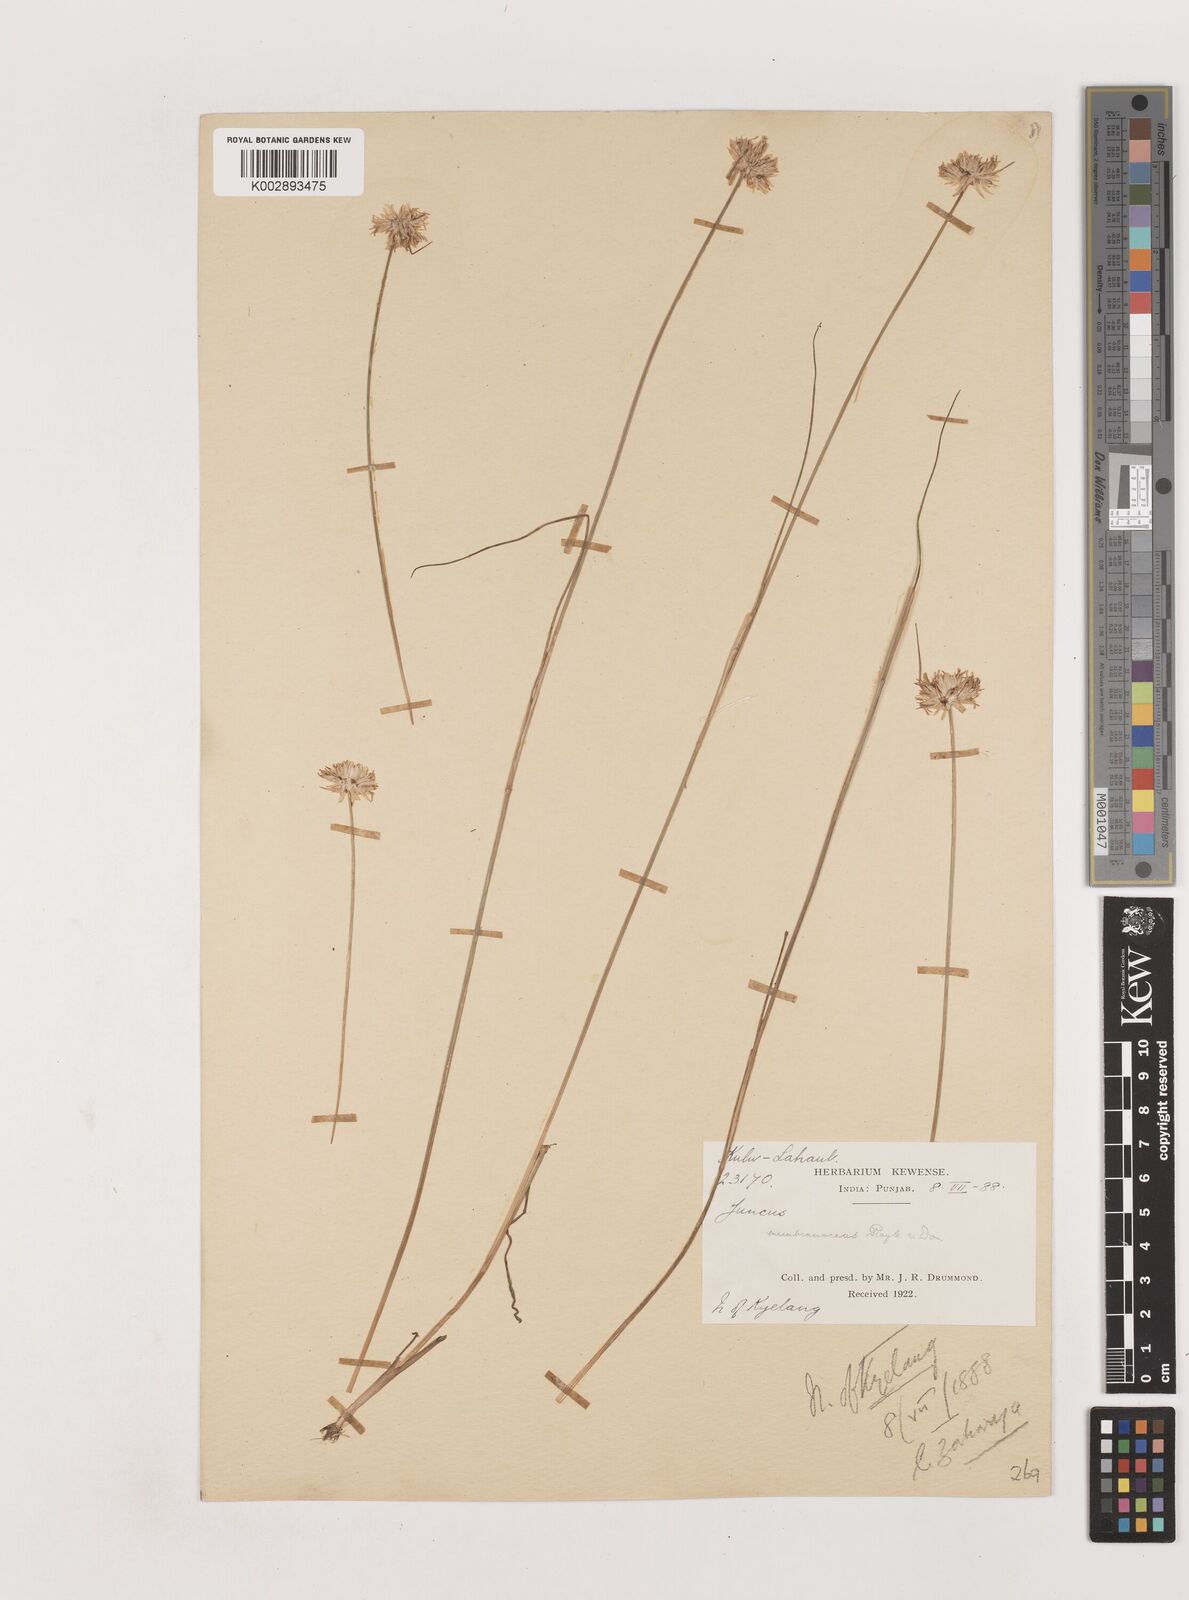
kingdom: Plantae
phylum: Tracheophyta
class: Liliopsida
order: Poales
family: Juncaceae
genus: Juncus
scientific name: Juncus membranaceus
